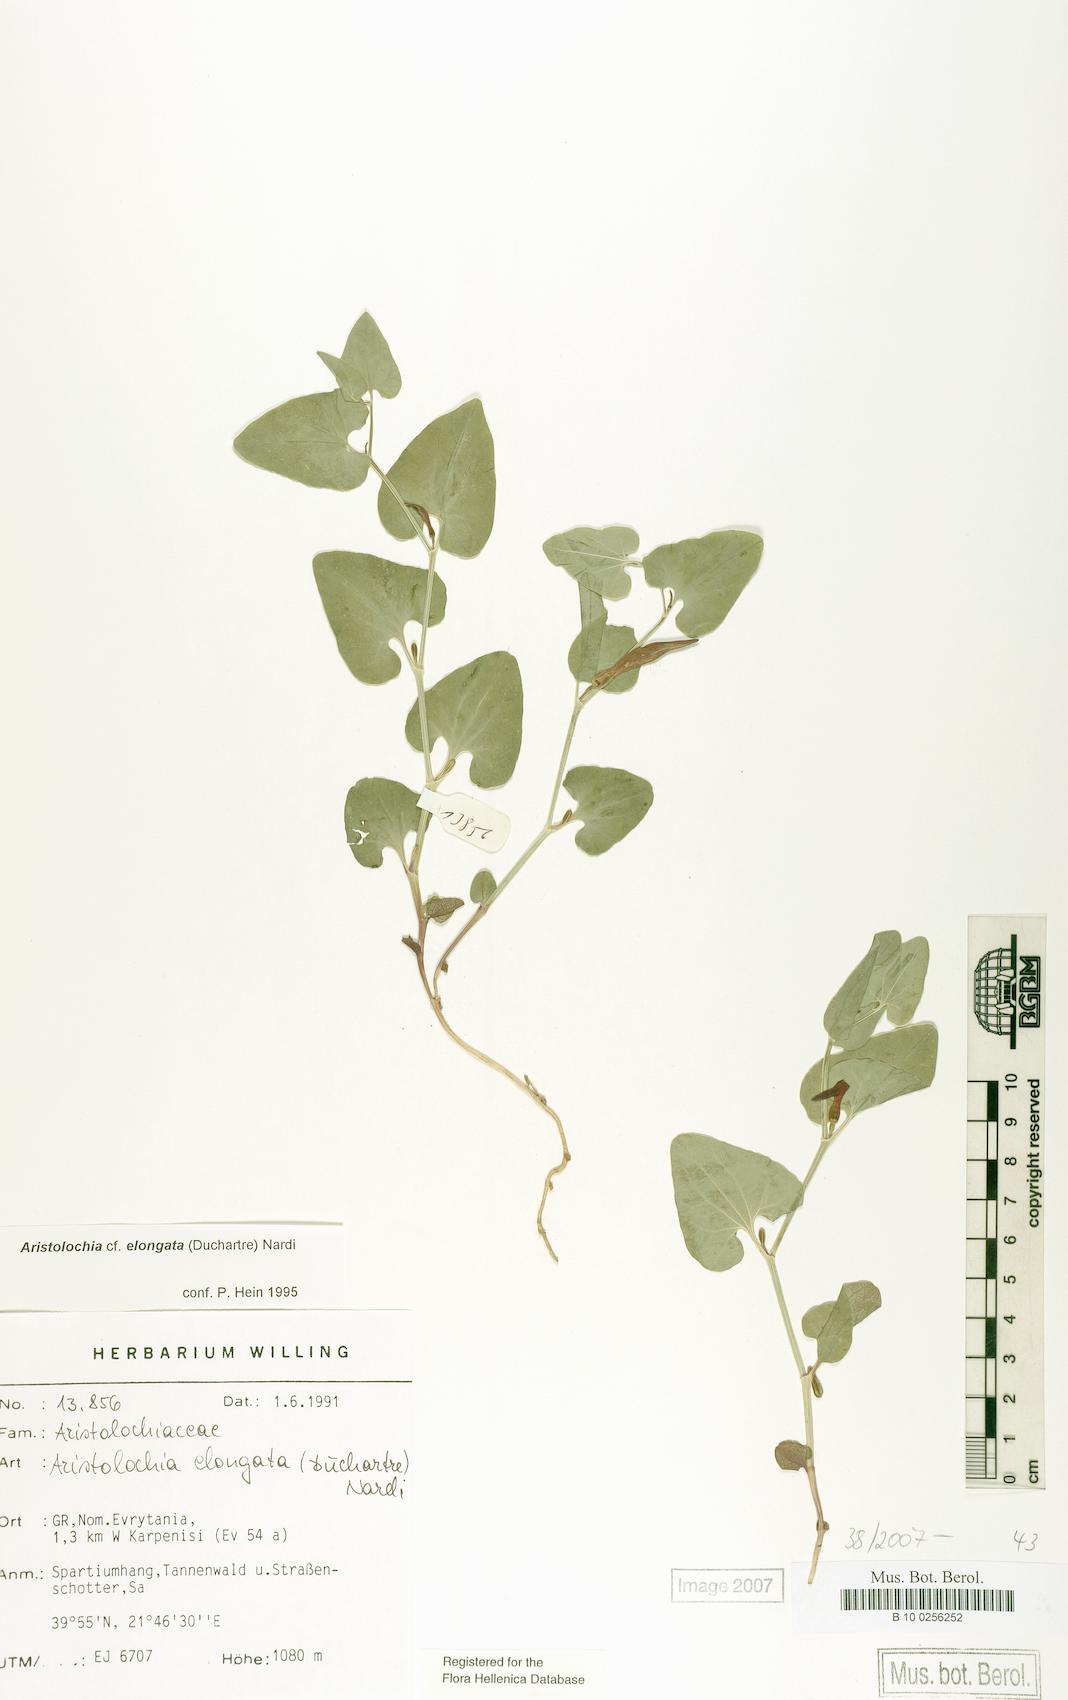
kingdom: Plantae
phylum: Tracheophyta
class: Magnoliopsida
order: Piperales
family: Aristolochiaceae
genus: Aristolochia
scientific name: Aristolochia nardiana
